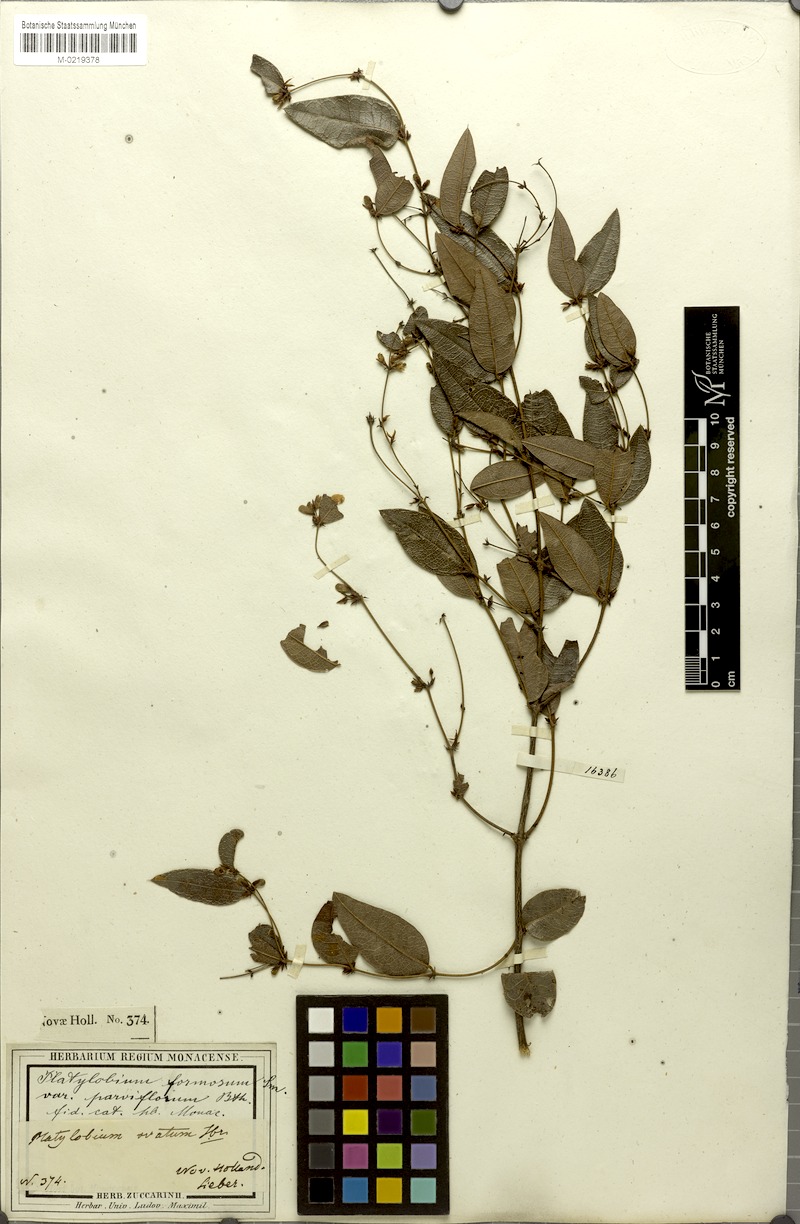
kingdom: Plantae
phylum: Tracheophyta
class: Magnoliopsida
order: Fabales
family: Fabaceae
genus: Platylobium
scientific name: Platylobium parviflorum
